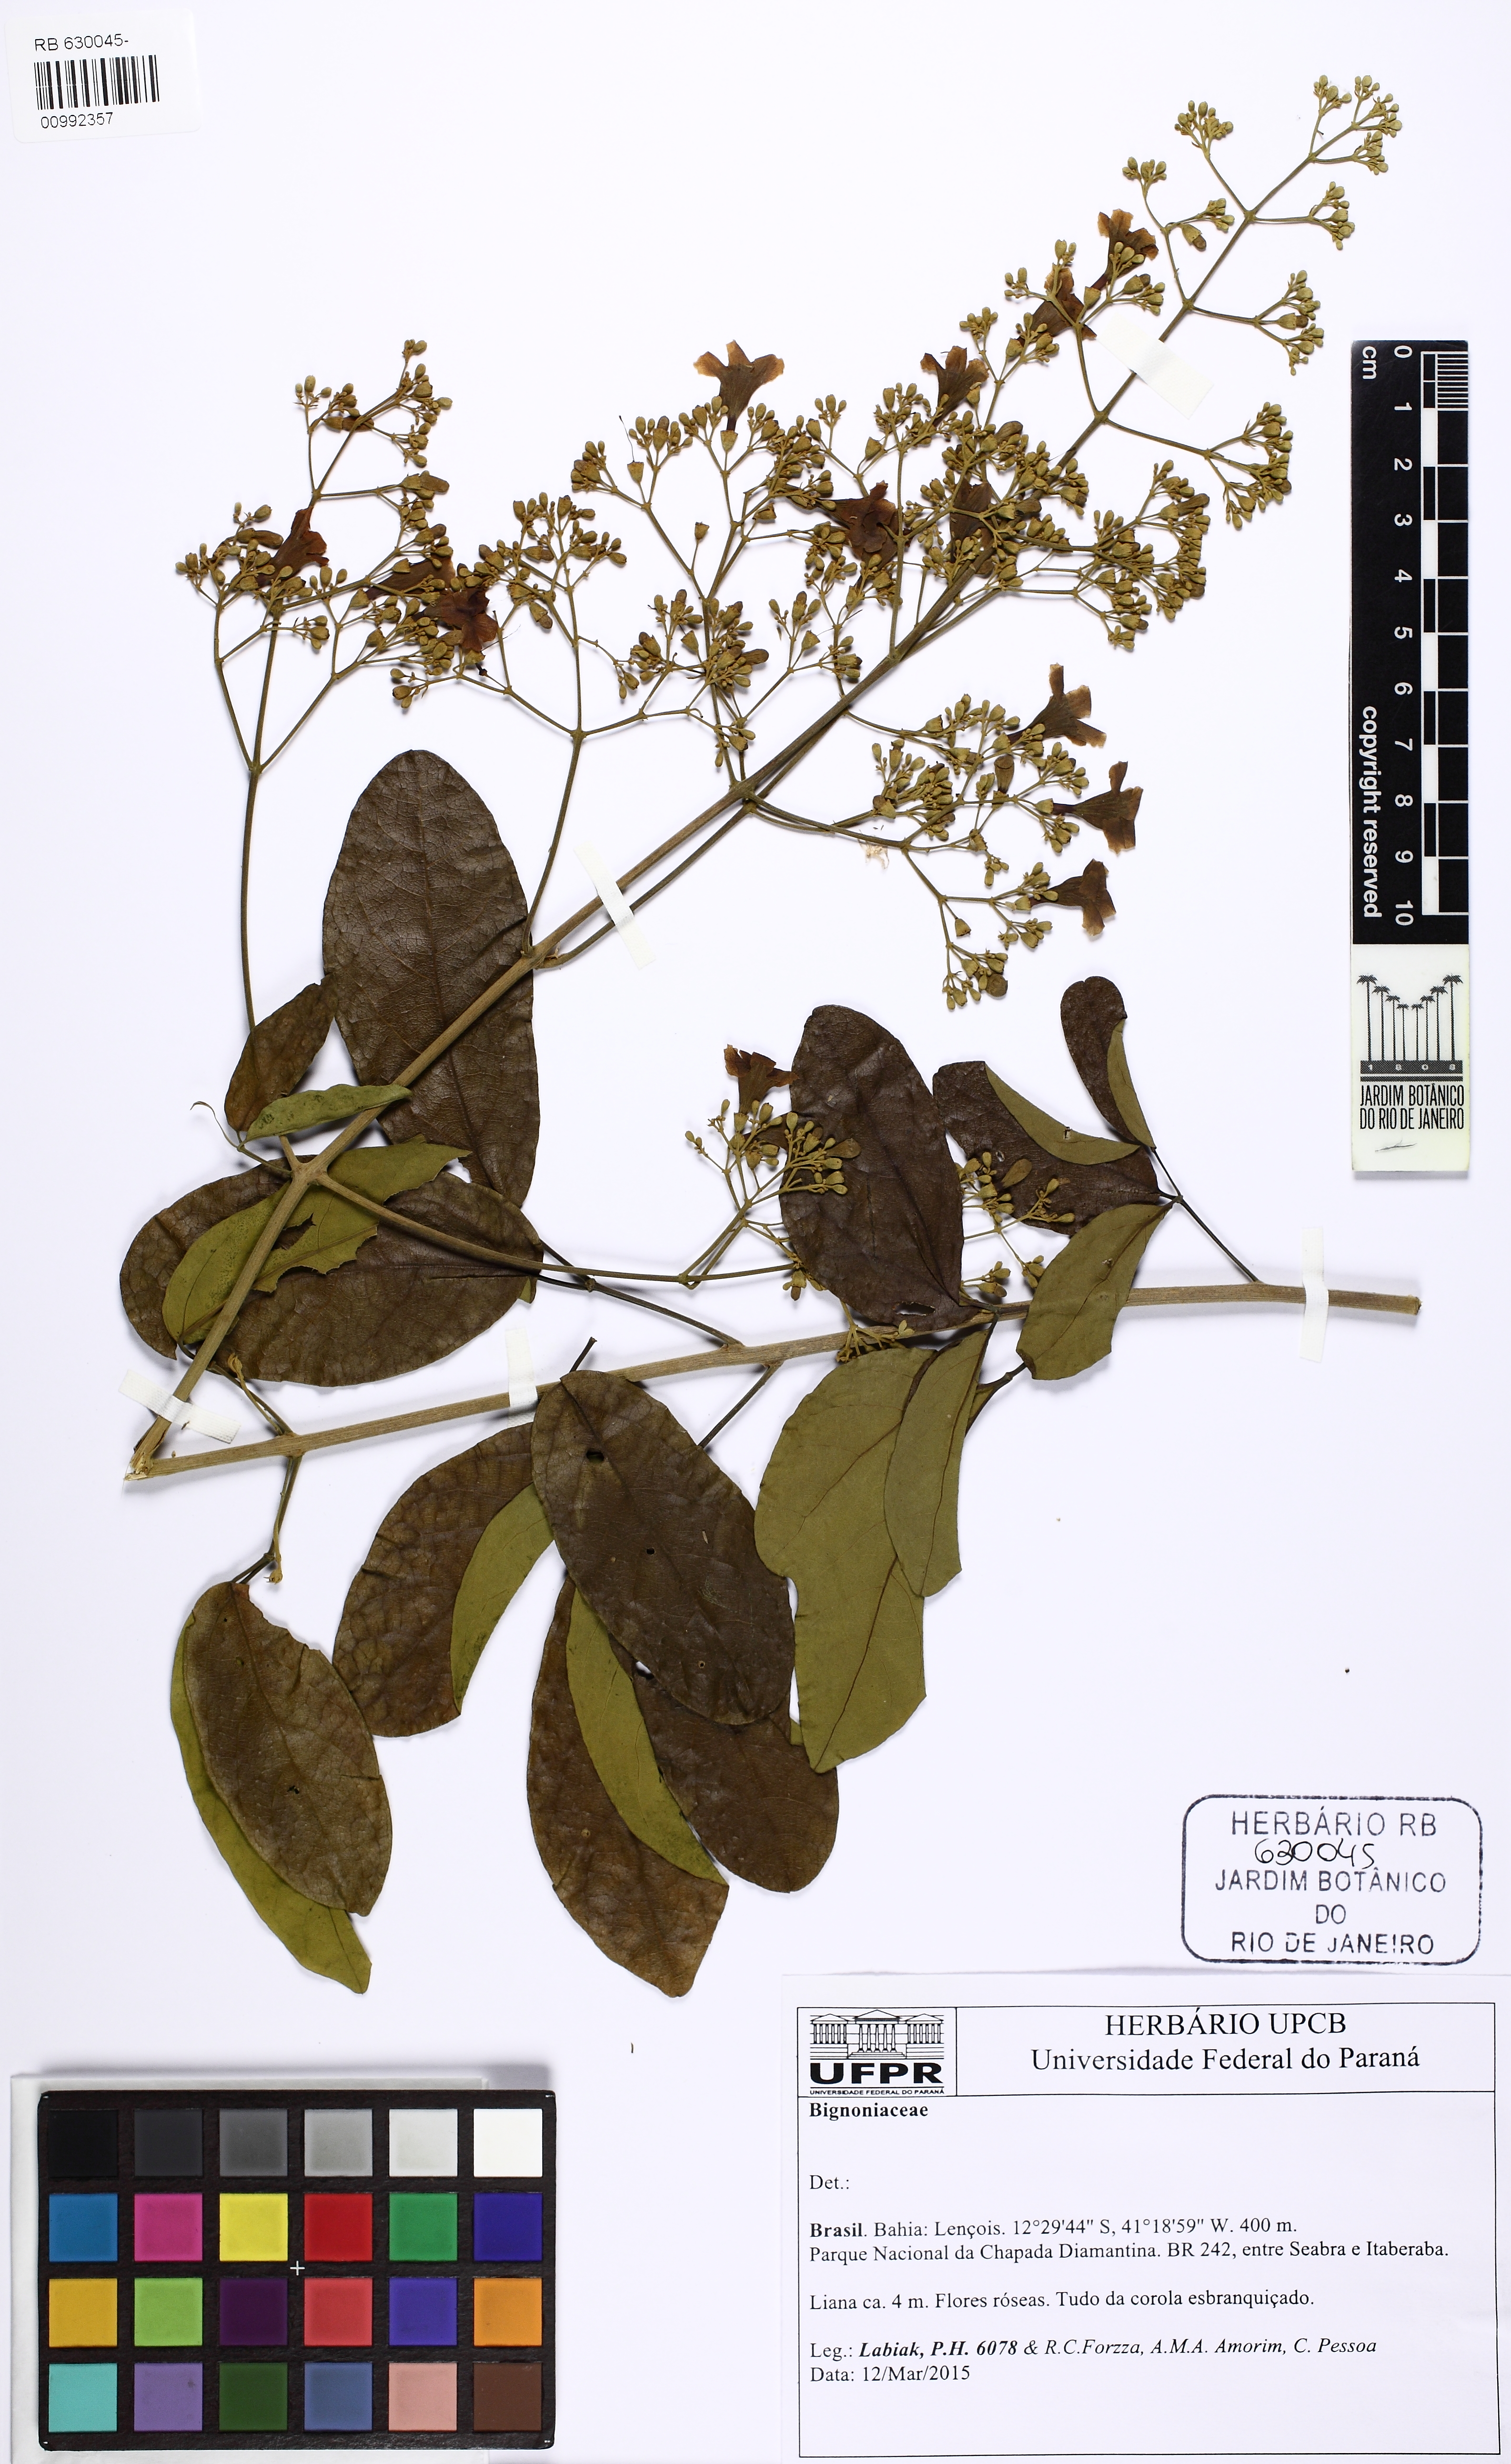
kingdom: Plantae
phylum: Tracheophyta
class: Magnoliopsida
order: Lamiales
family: Bignoniaceae
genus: Fridericia
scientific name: Fridericia pubescens
